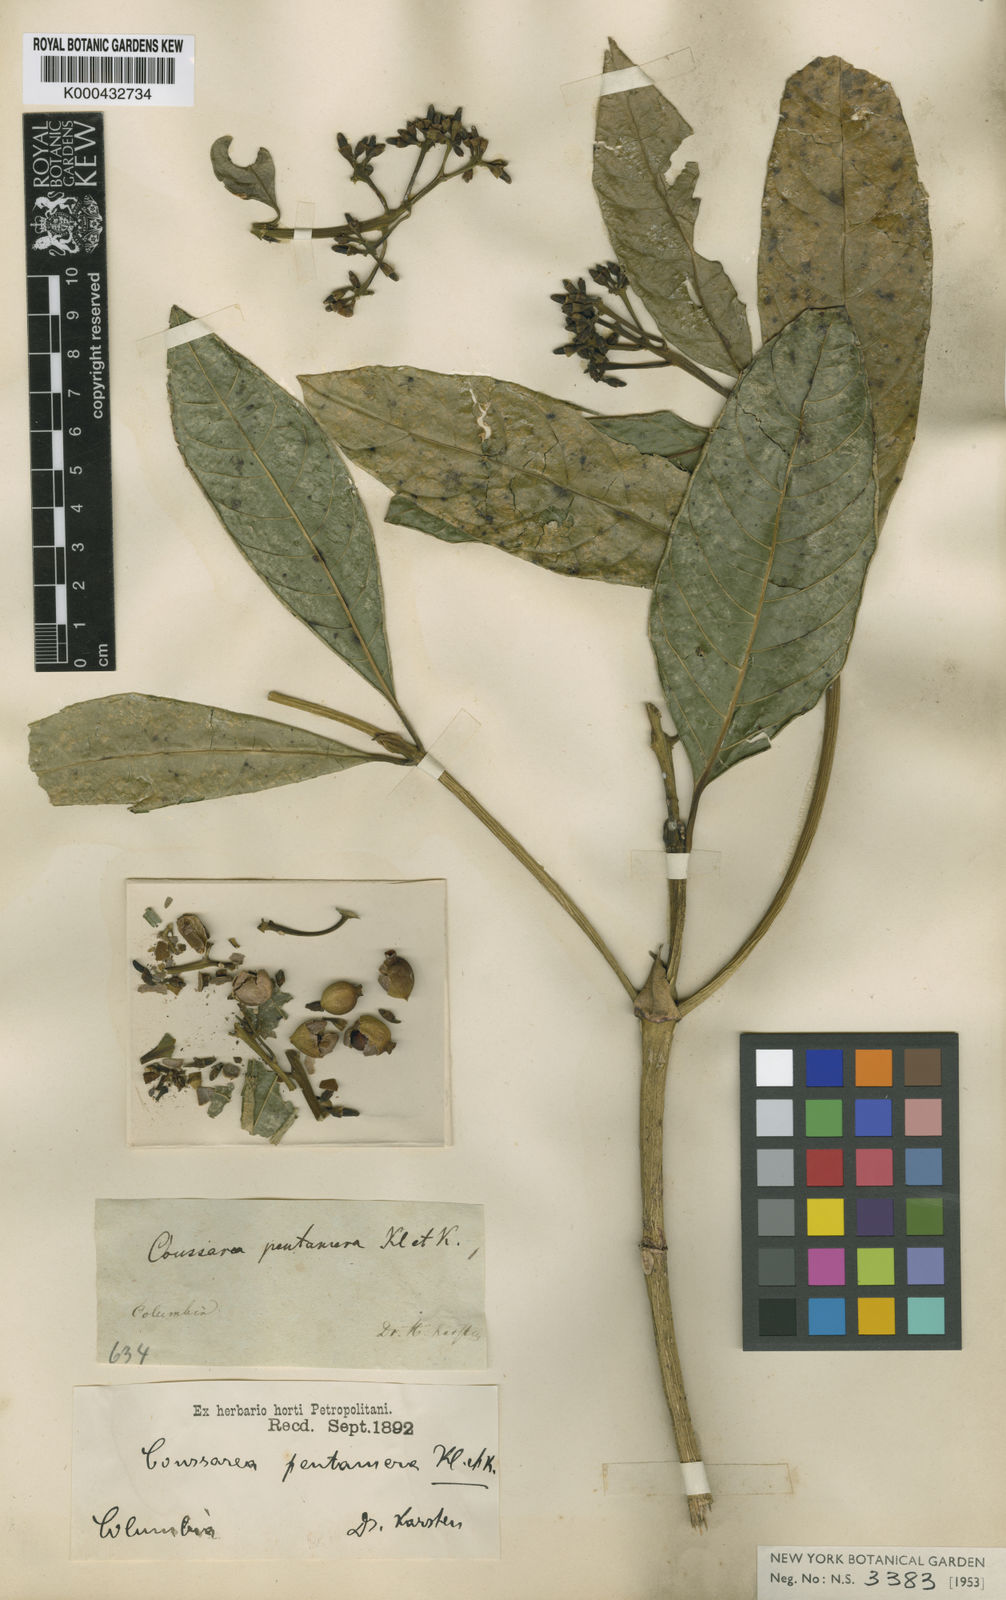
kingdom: Plantae
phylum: Tracheophyta
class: Magnoliopsida
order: Gentianales
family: Rubiaceae
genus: Coussarea
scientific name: Coussarea moritziana
